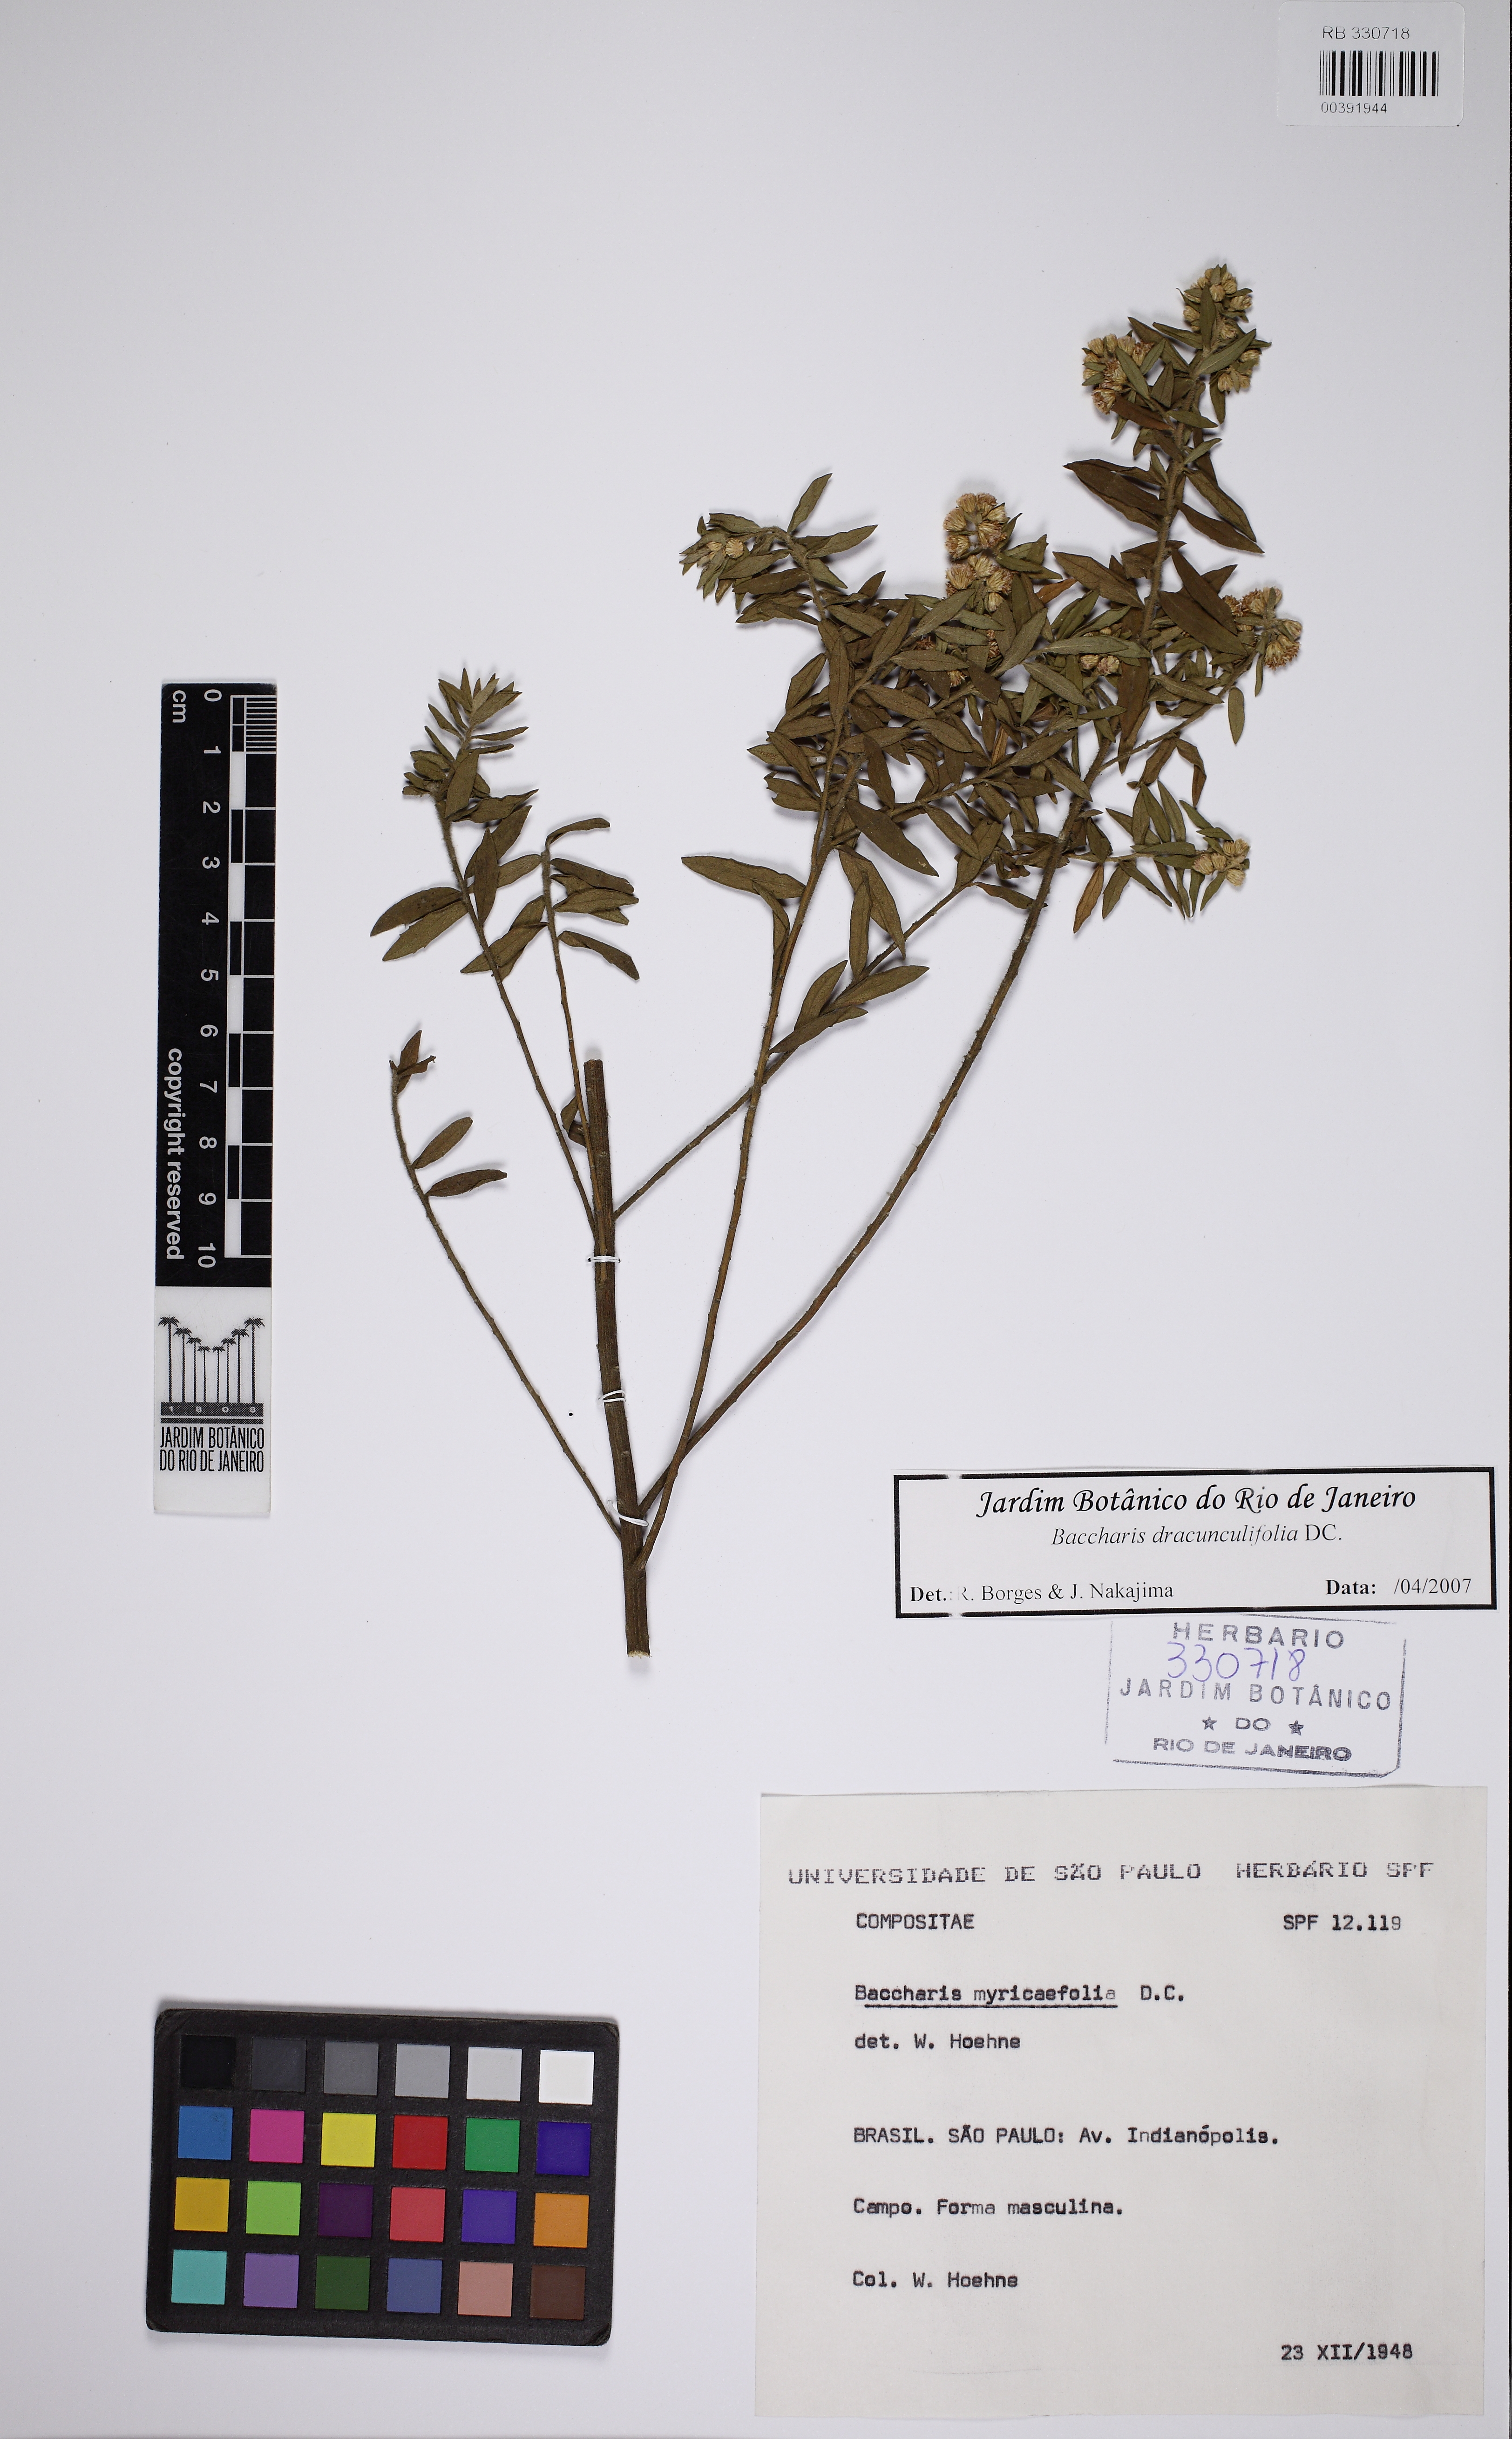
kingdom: Plantae
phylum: Tracheophyta
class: Magnoliopsida
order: Asterales
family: Asteraceae
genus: Baccharis
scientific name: Baccharis myricifolia
